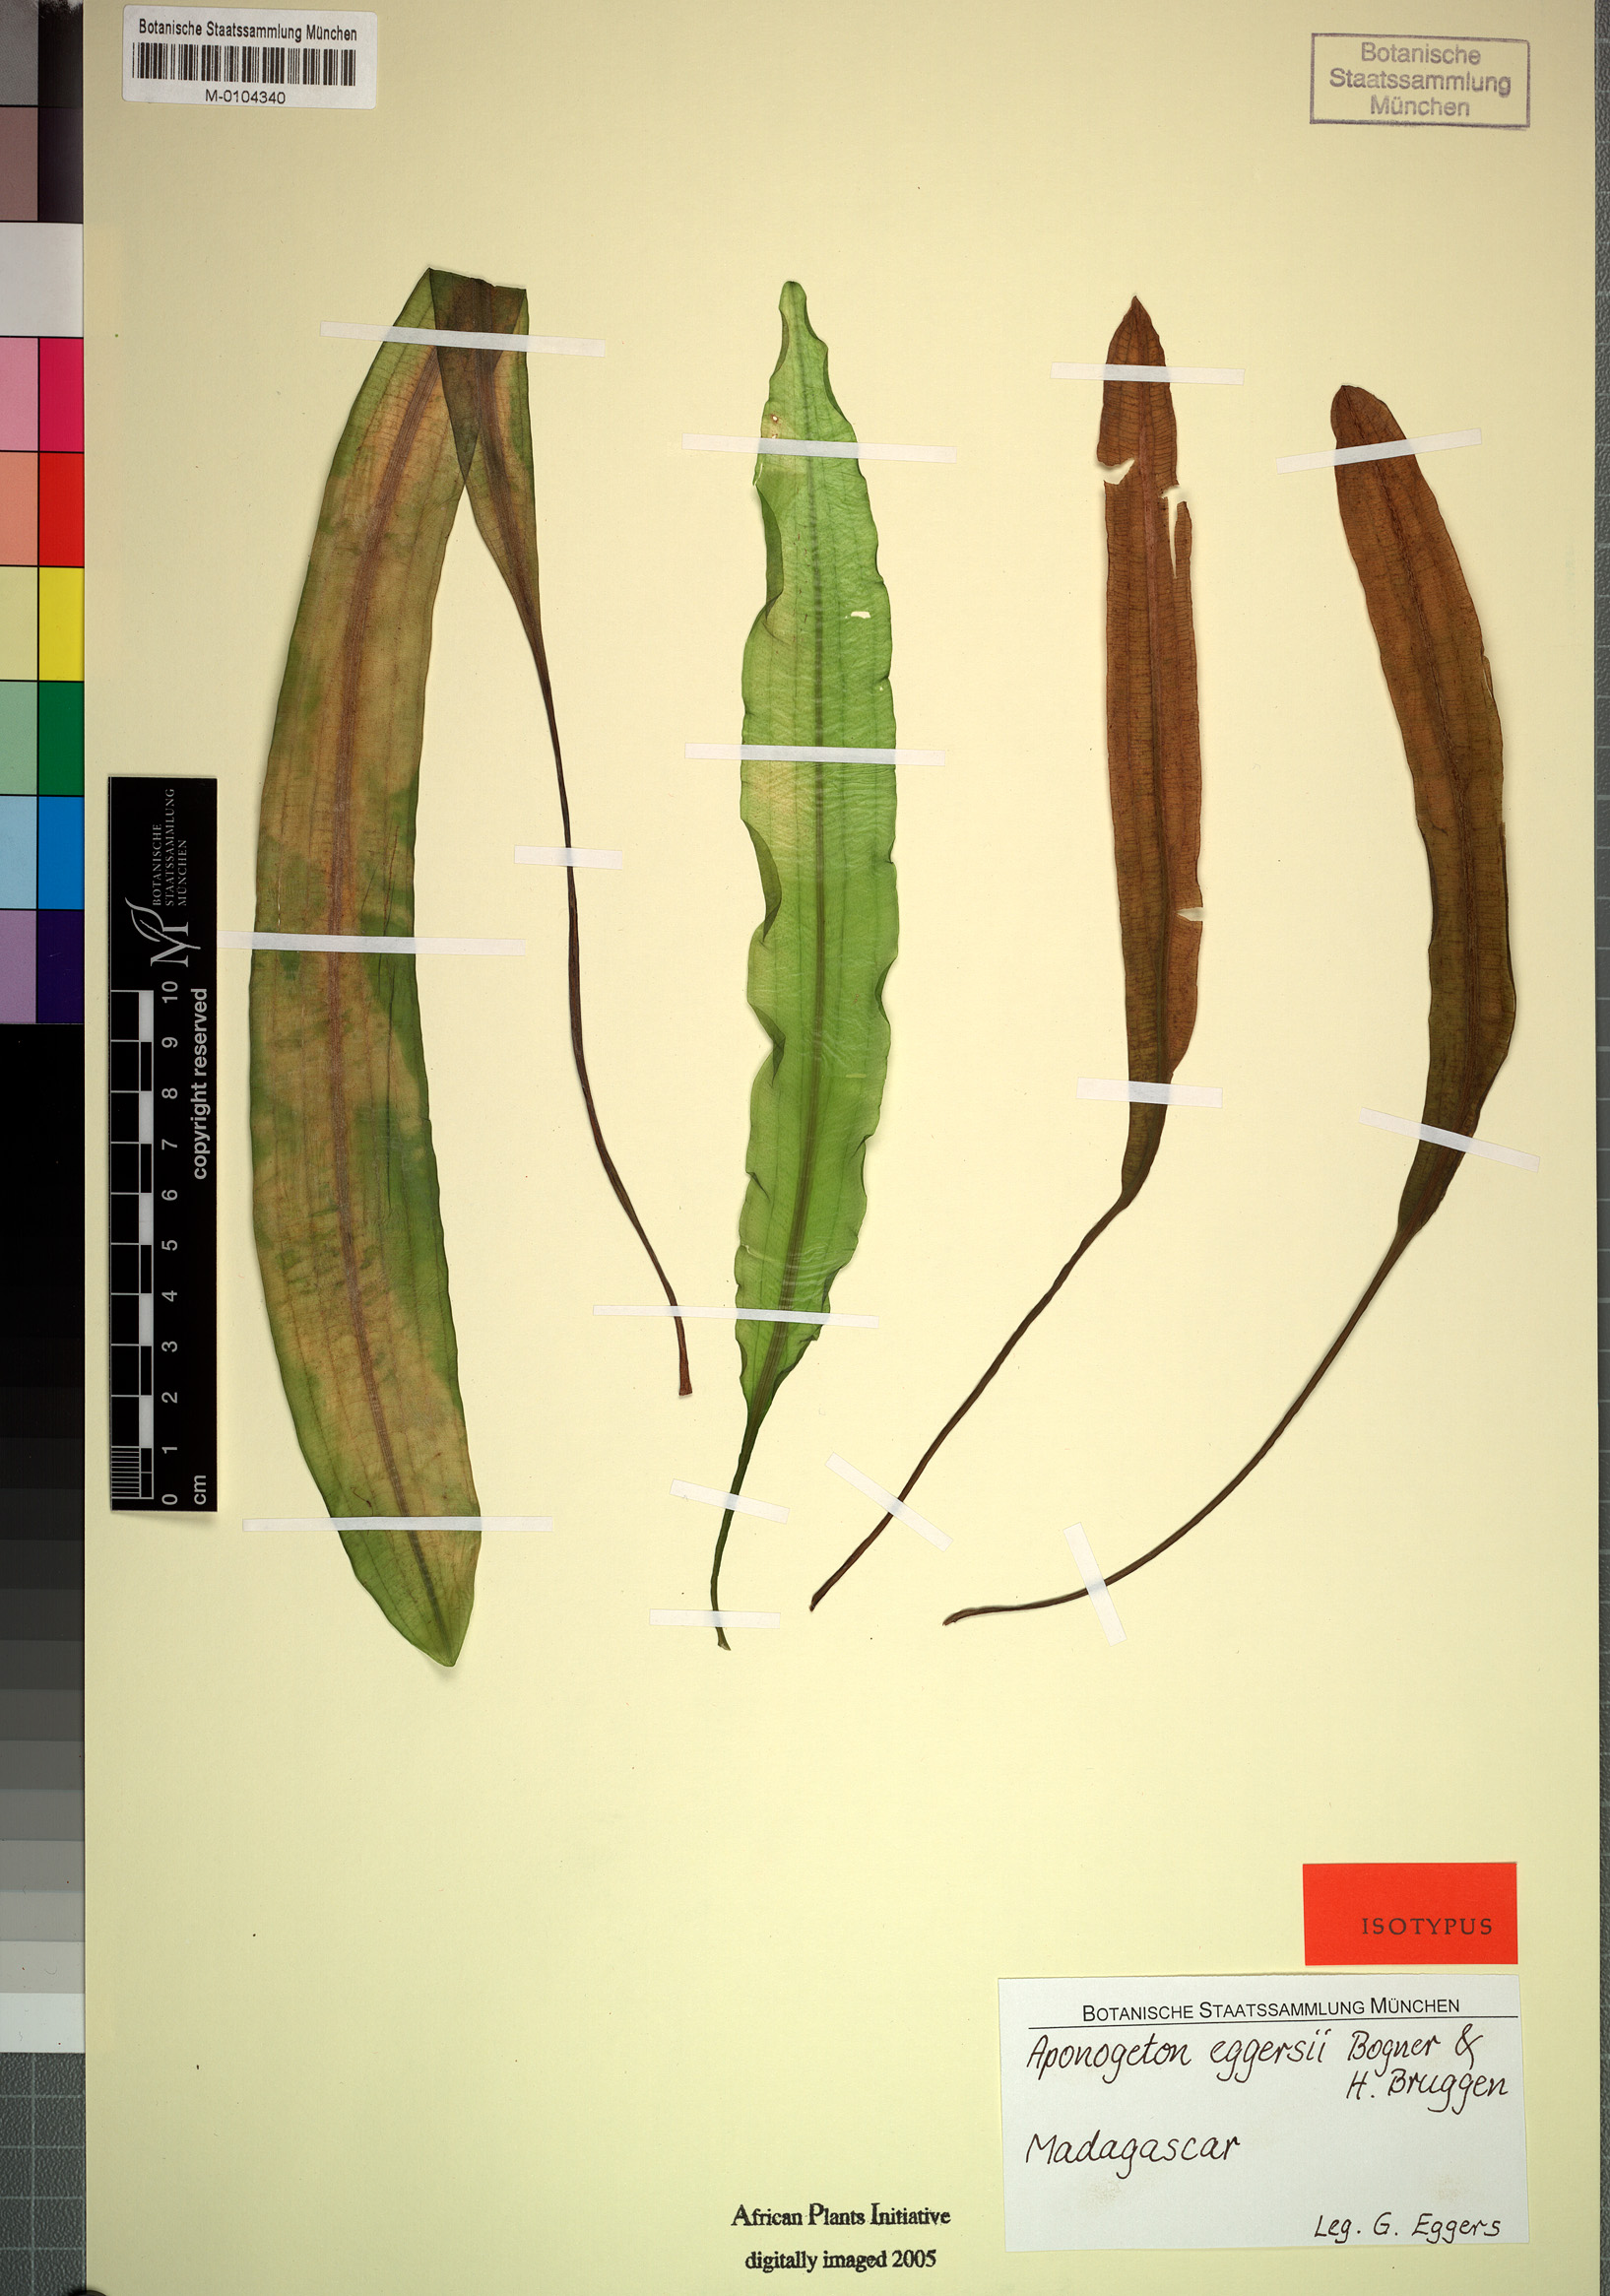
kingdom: Plantae
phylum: Tracheophyta
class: Liliopsida
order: Alismatales
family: Aponogetonaceae
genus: Aponogeton
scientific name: Aponogeton eggersii
